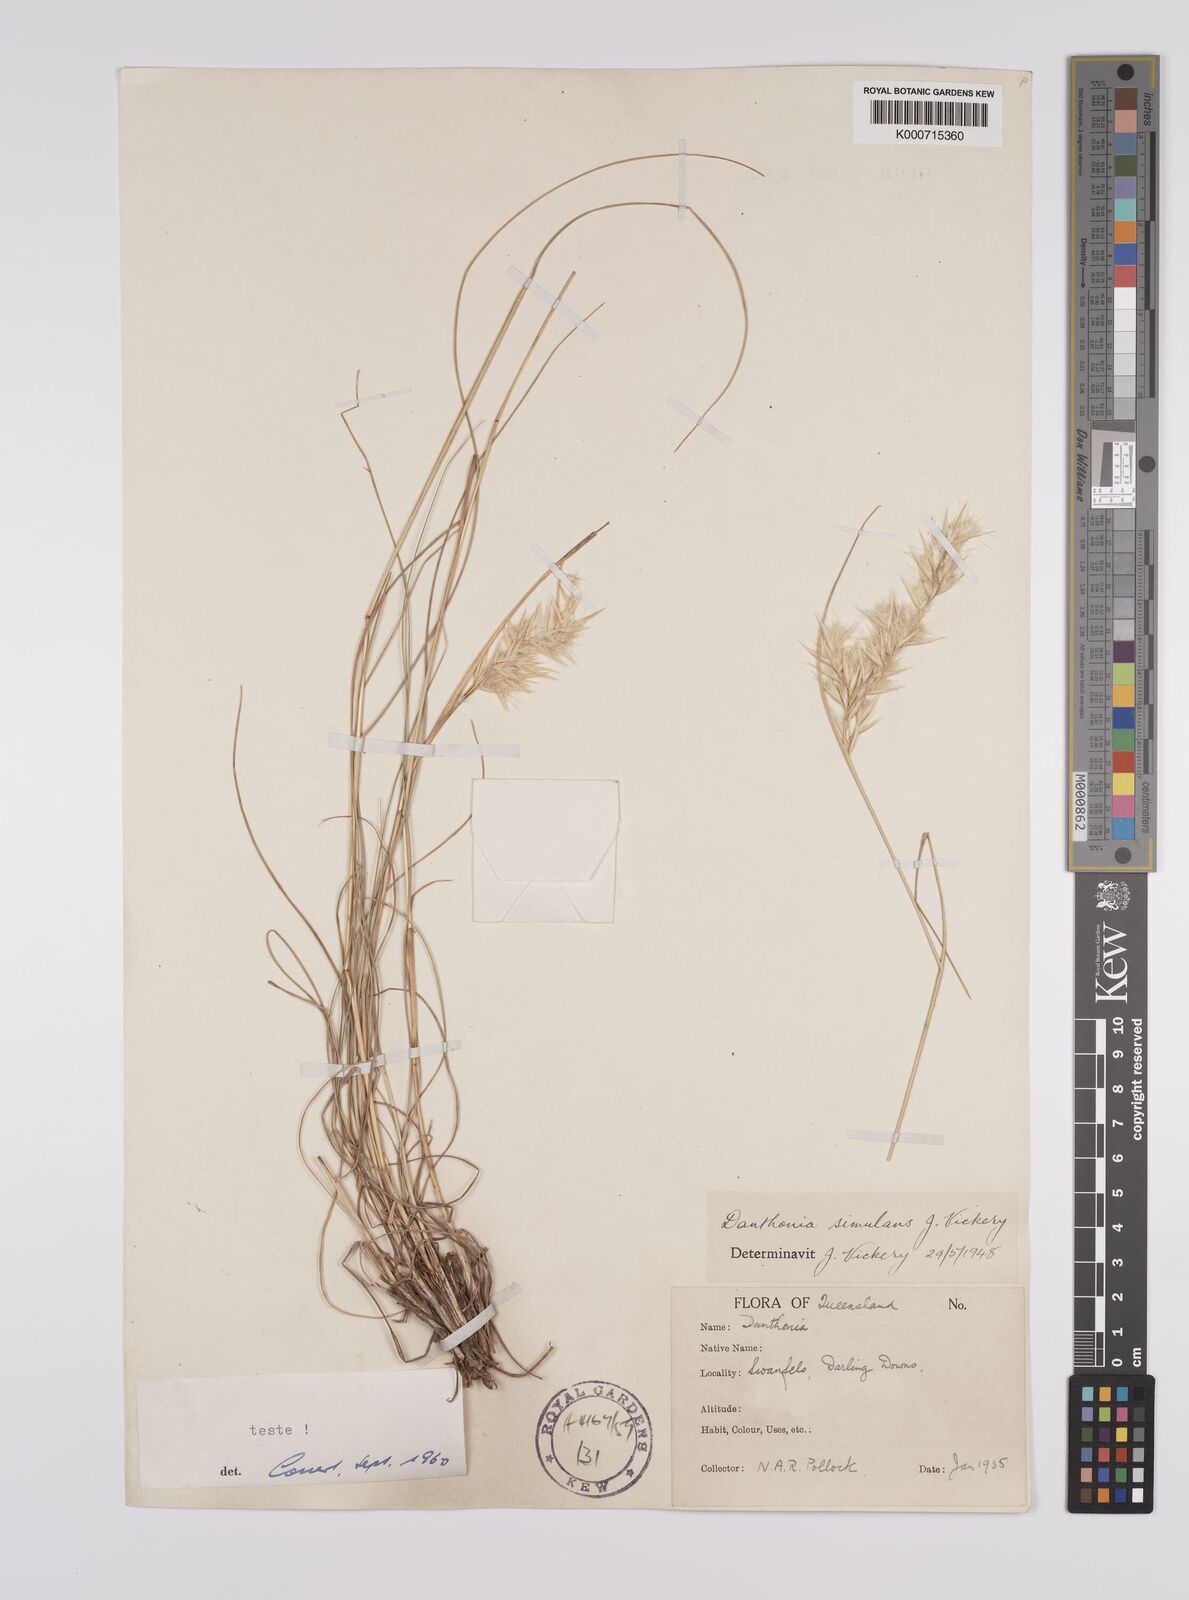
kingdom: Plantae
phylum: Tracheophyta
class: Liliopsida
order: Poales
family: Poaceae
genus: Rytidosperma
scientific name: Rytidosperma bipartitum
